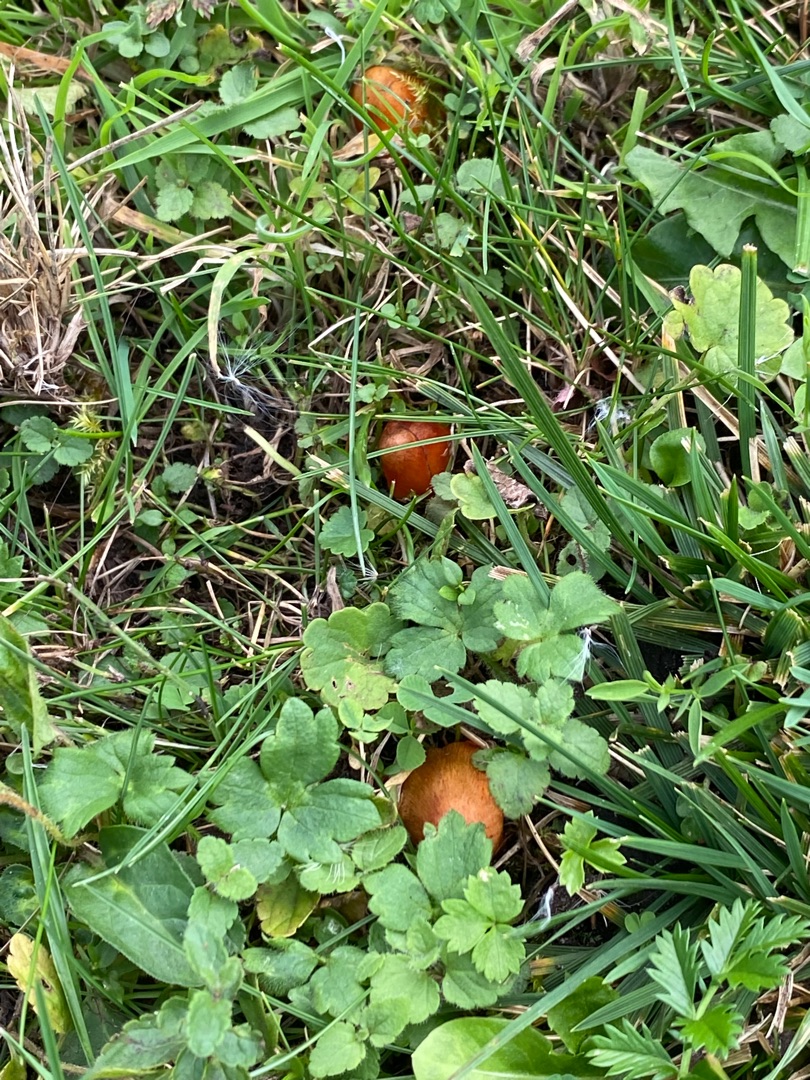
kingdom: Fungi
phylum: Basidiomycota
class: Agaricomycetes
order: Agaricales
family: Hygrophoraceae
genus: Hygrocybe
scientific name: Hygrocybe conica
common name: Kegle-vokshat
